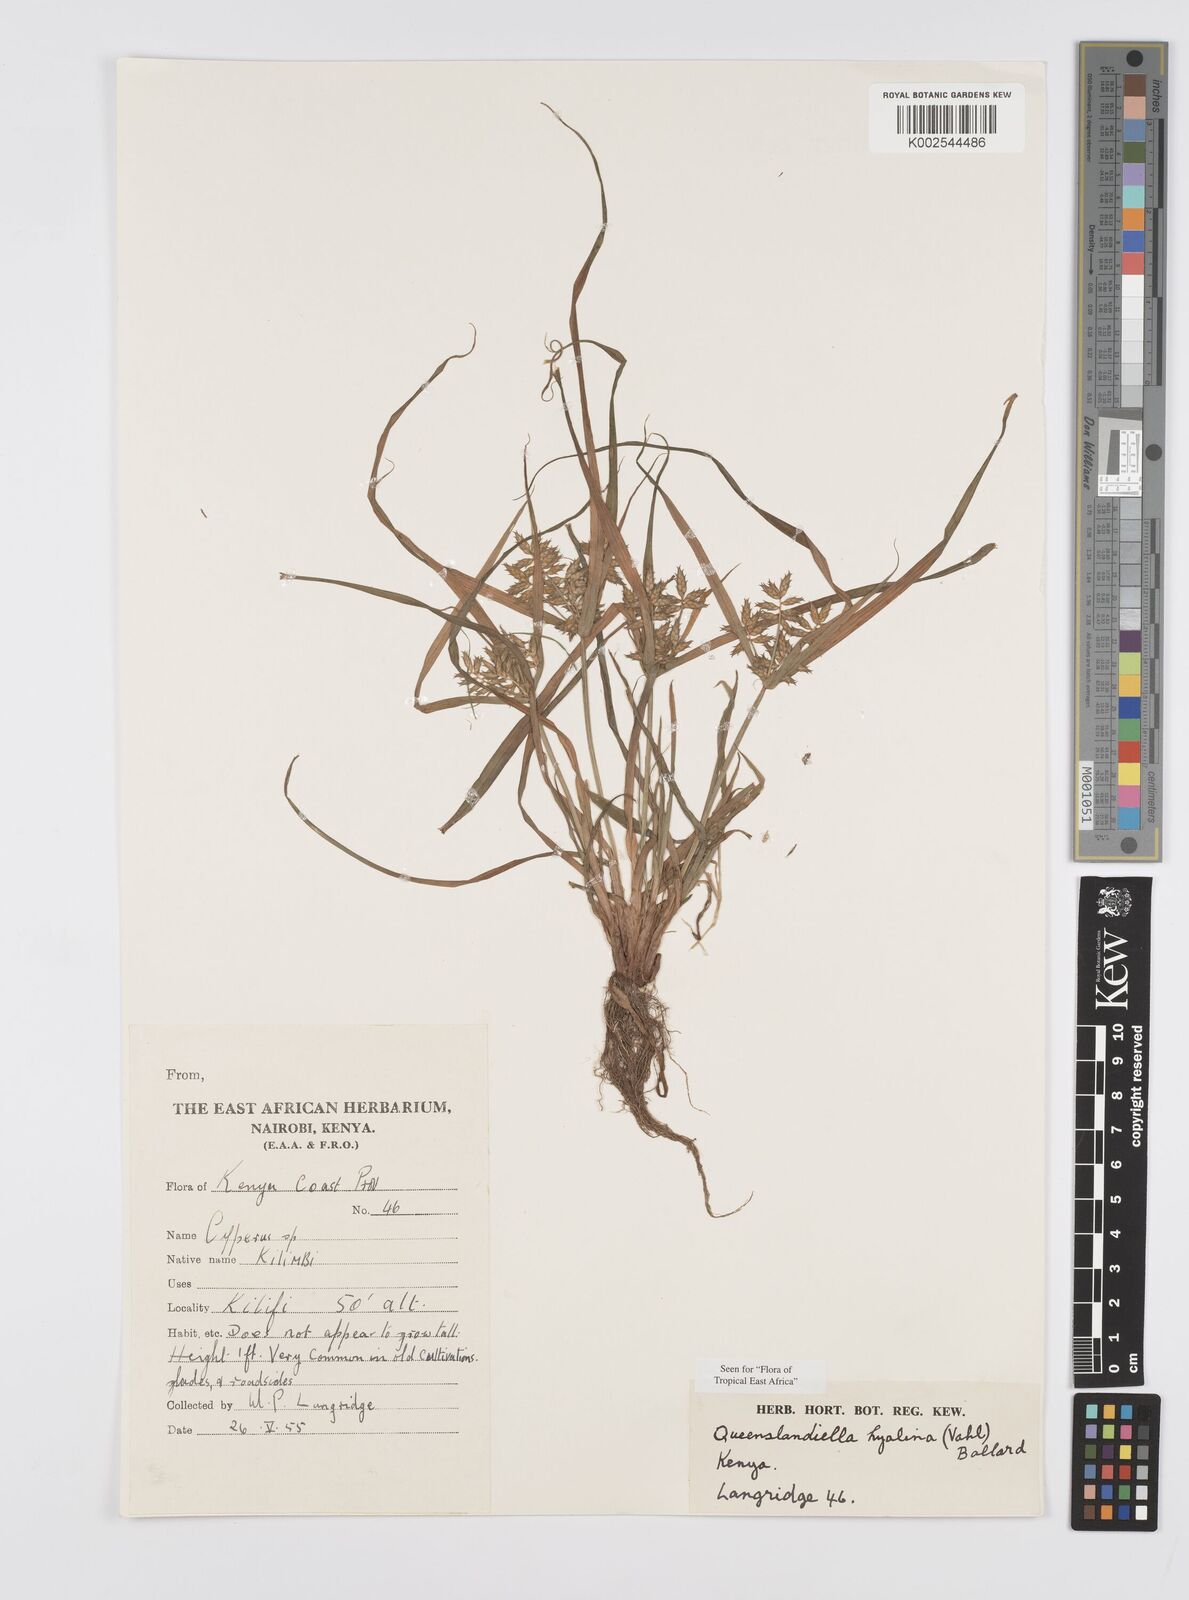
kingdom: Plantae
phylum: Tracheophyta
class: Liliopsida
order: Poales
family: Cyperaceae
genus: Cyperus
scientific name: Cyperus hyalinus
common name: Queensland sedge
